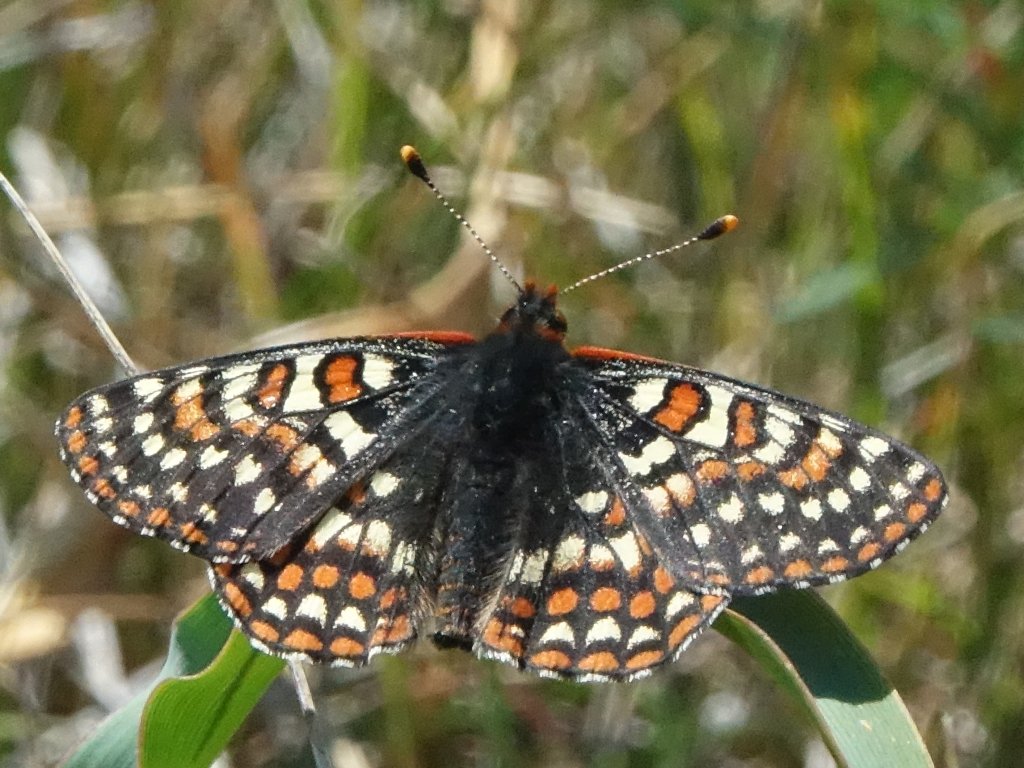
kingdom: Animalia
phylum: Arthropoda
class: Insecta
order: Lepidoptera
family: Nymphalidae
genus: Occidryas
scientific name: Occidryas editha
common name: Edith's Checkerspot
